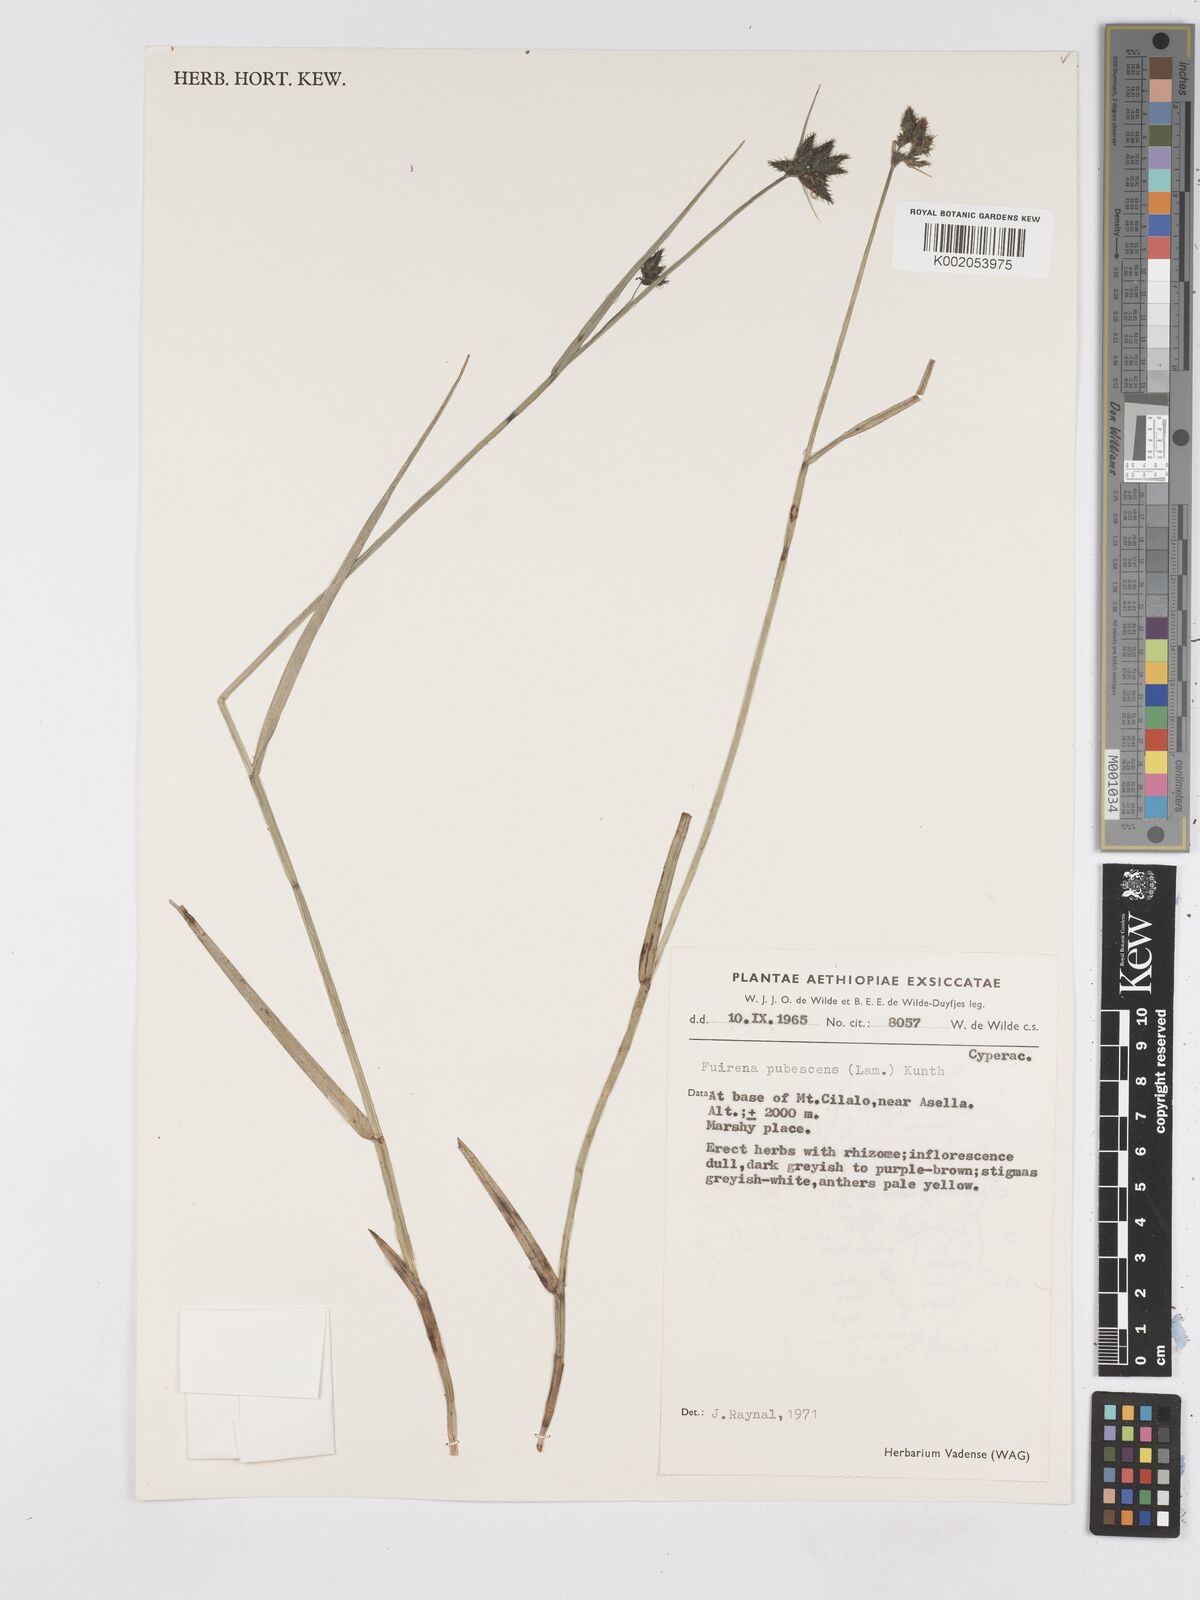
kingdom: Plantae
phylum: Tracheophyta
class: Liliopsida
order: Poales
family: Cyperaceae
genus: Fuirena
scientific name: Fuirena pachyrrhiza
